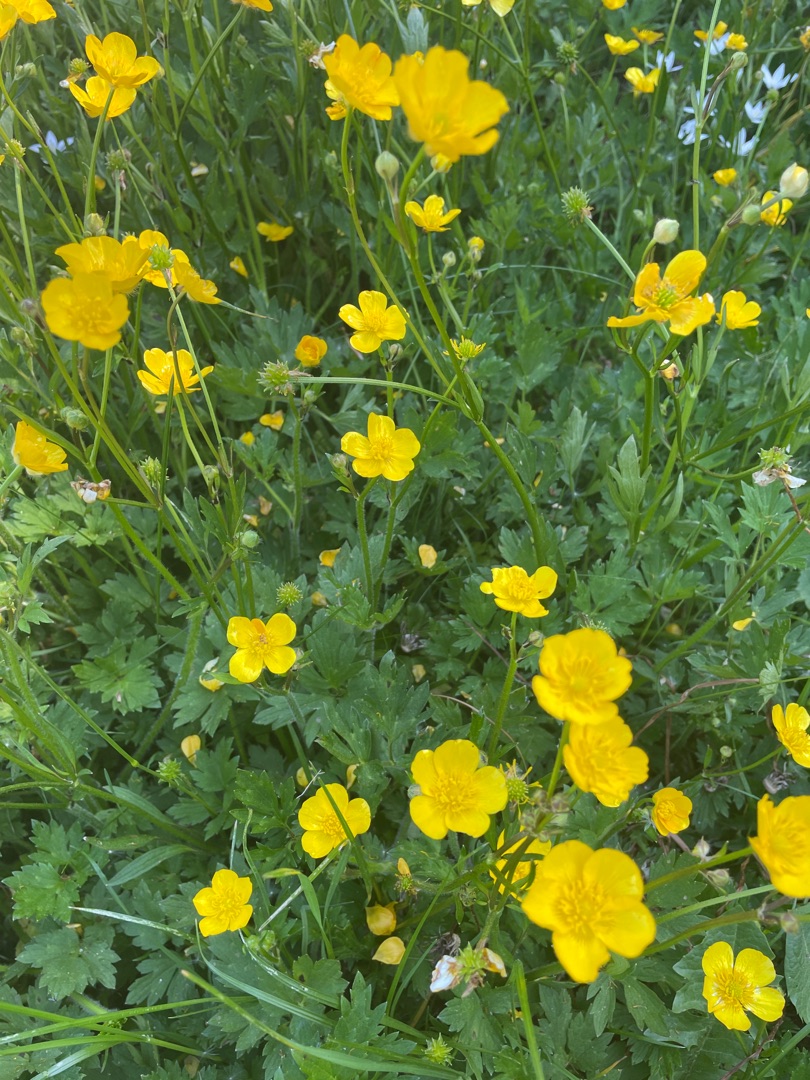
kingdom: Plantae
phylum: Tracheophyta
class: Magnoliopsida
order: Ranunculales
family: Ranunculaceae
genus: Ranunculus
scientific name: Ranunculus repens
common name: Lav ranunkel
